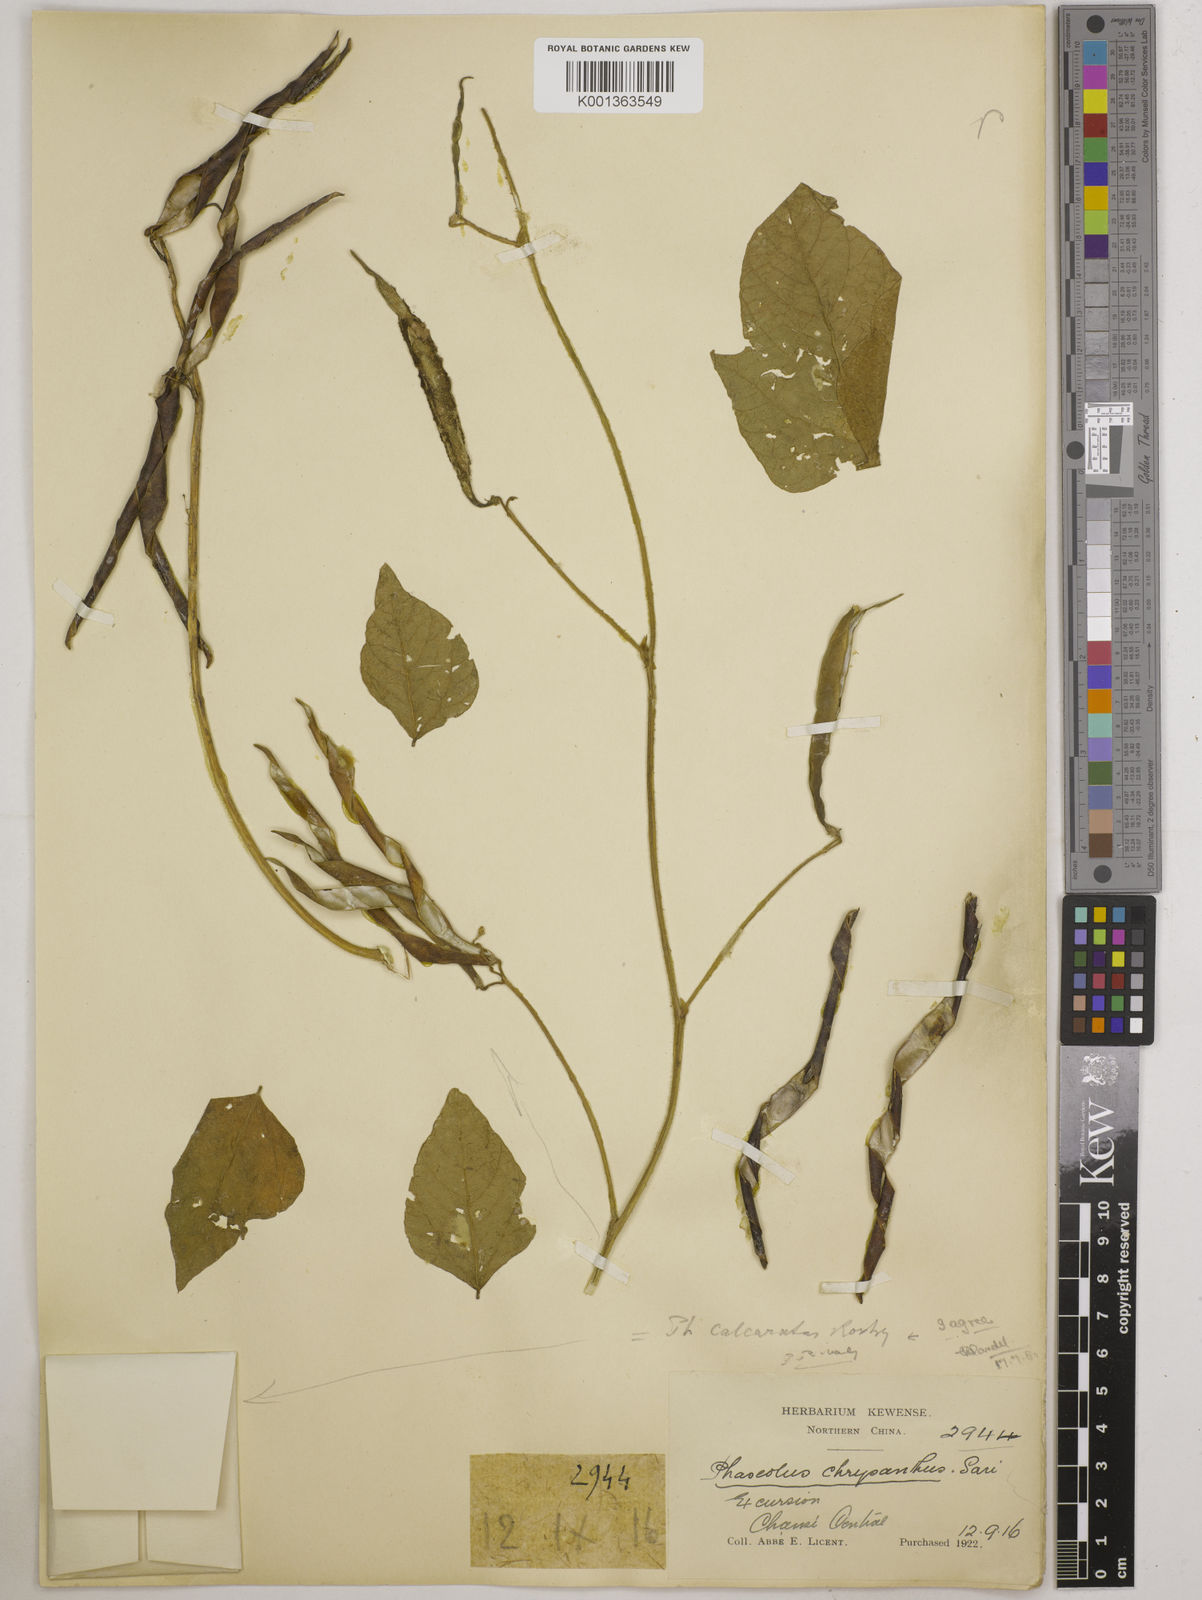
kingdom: Plantae
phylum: Tracheophyta
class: Magnoliopsida
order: Fabales
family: Fabaceae
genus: Vigna
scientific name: Vigna umbellata
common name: Oriental-bean
